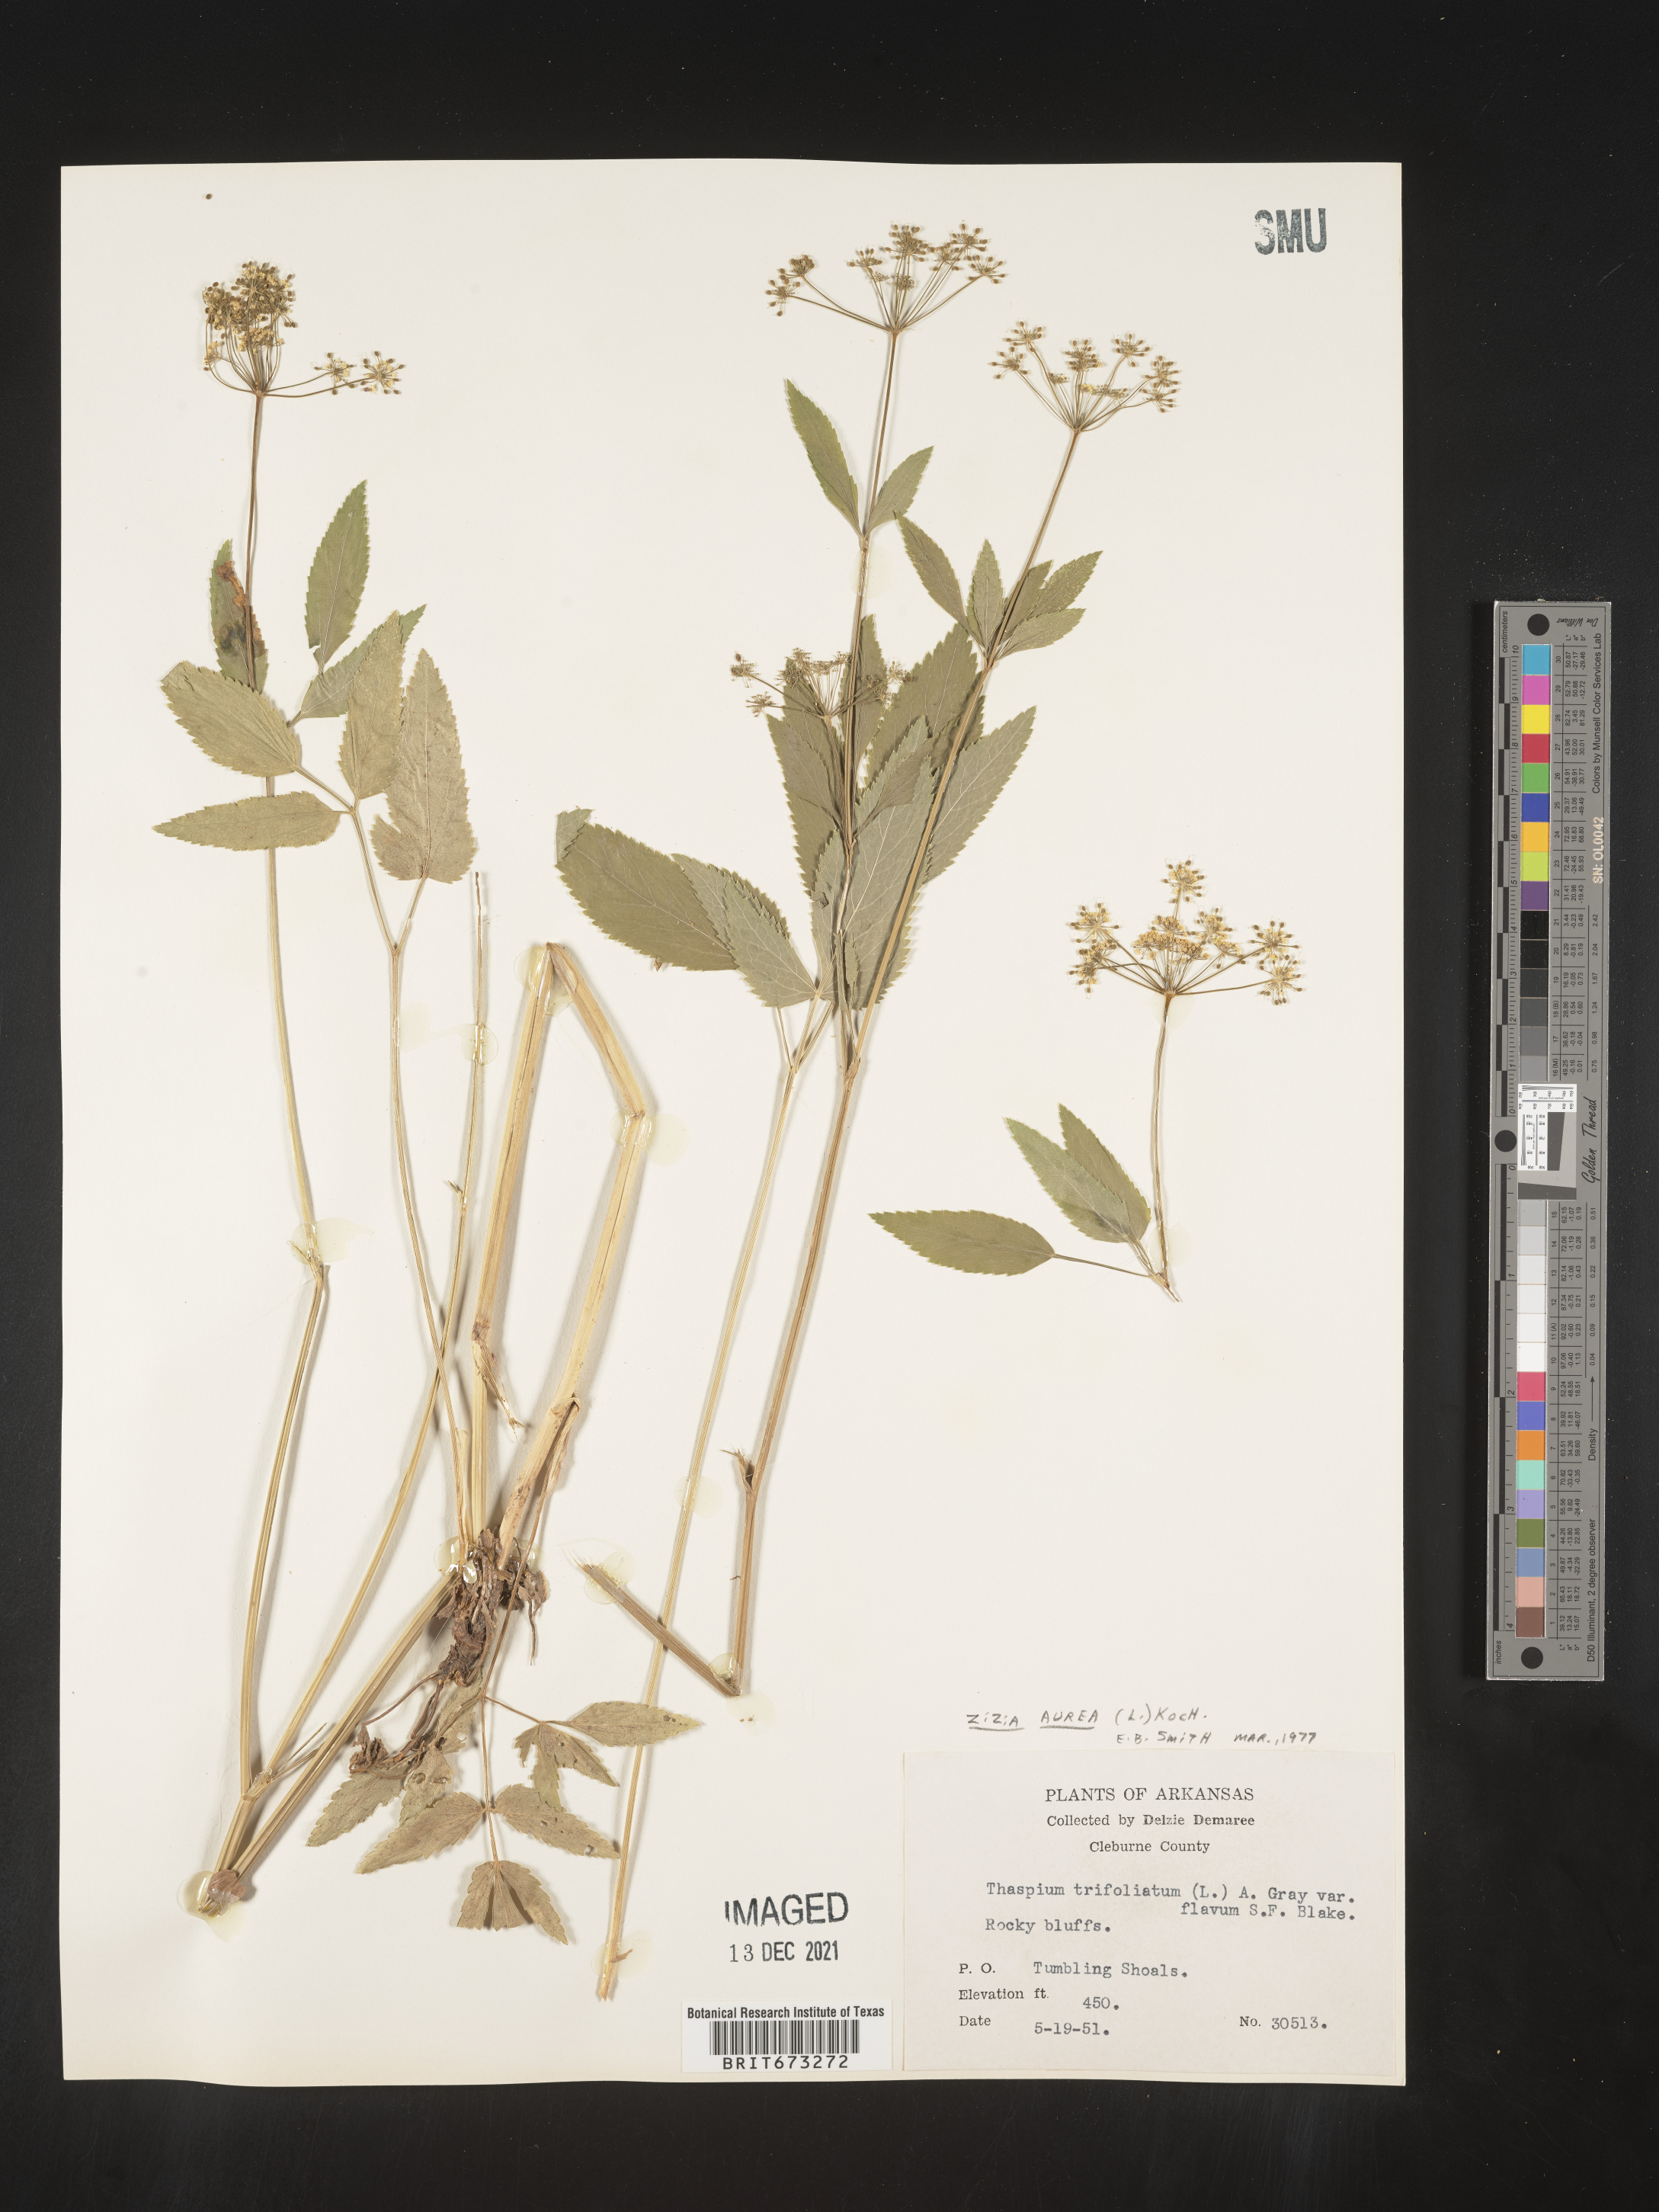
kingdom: Plantae
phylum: Tracheophyta
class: Magnoliopsida
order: Apiales
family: Apiaceae
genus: Zizia
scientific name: Zizia aurea
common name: Golden alexanders
